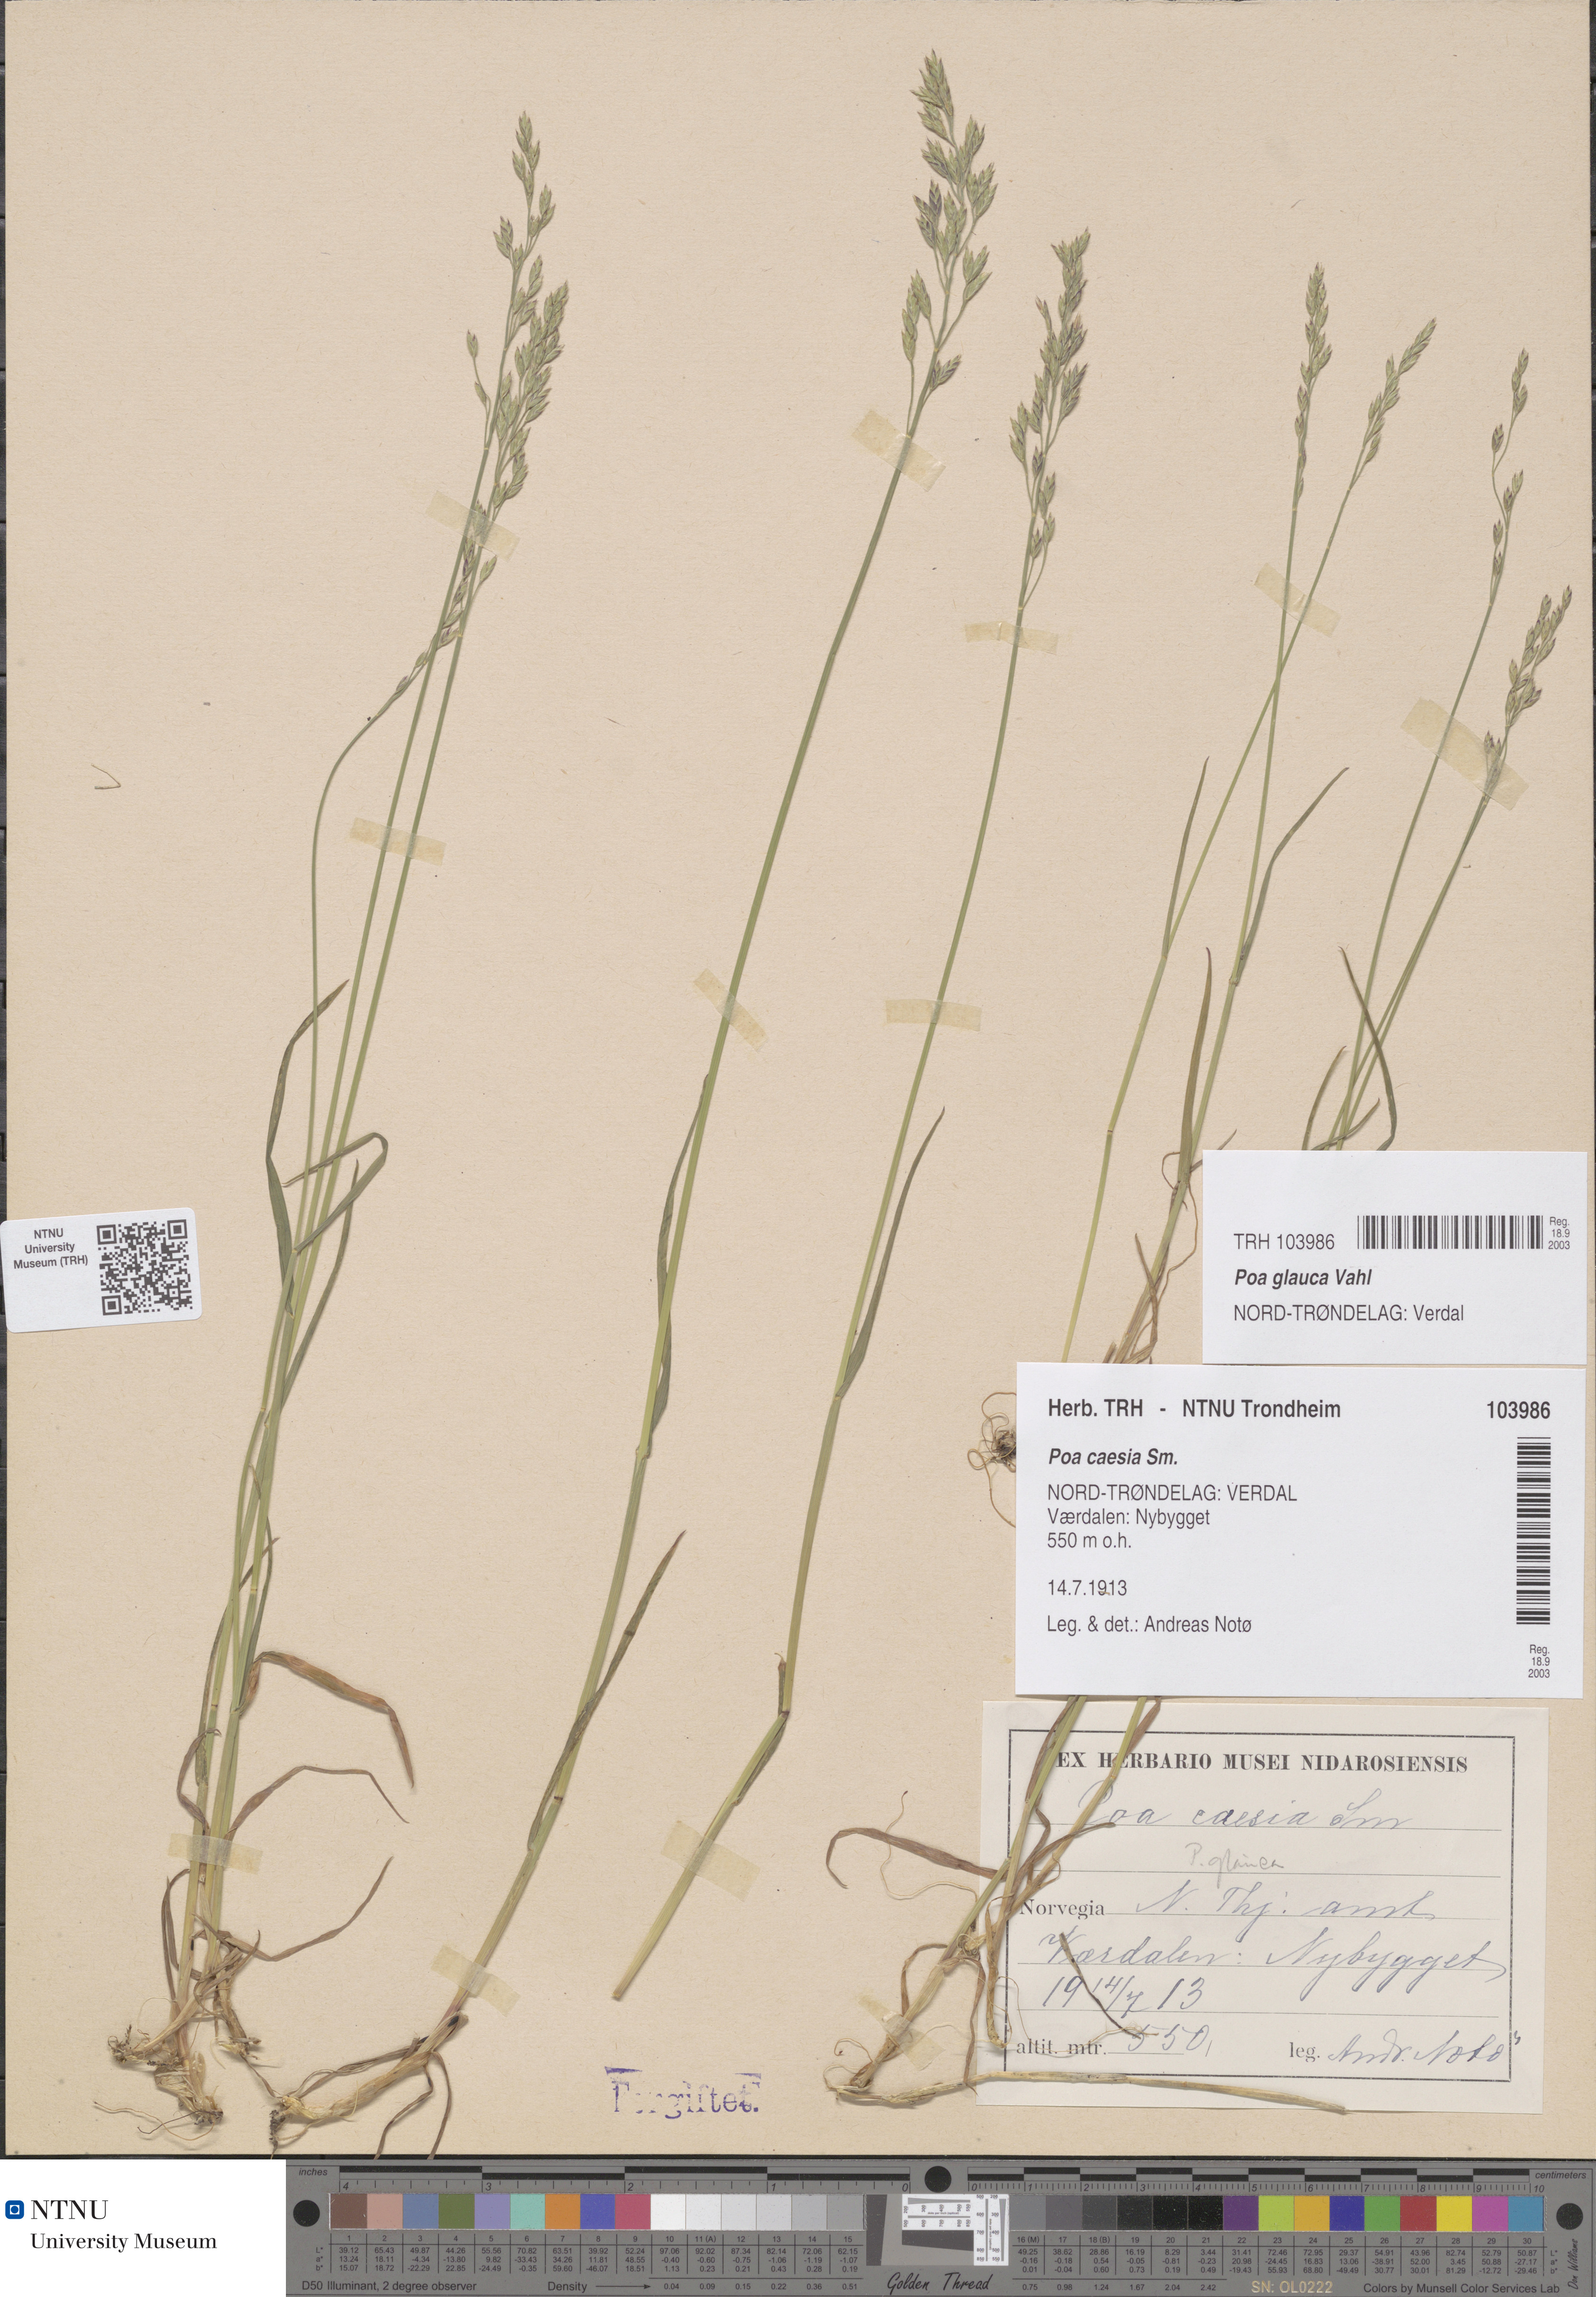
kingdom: Plantae
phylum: Tracheophyta
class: Liliopsida
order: Poales
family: Poaceae
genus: Poa
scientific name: Poa glauca
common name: Glaucous bluegrass
